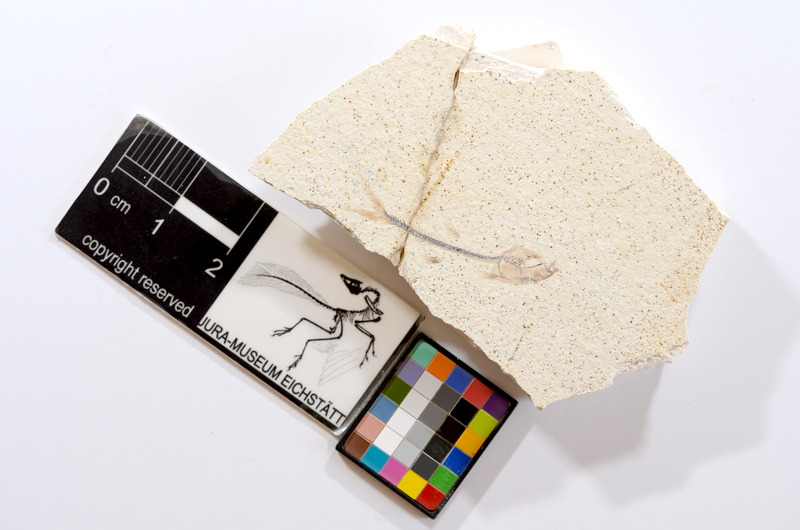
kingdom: Animalia
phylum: Chordata
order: Salmoniformes
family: Orthogonikleithridae
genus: Orthogonikleithrus
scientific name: Orthogonikleithrus hoelli
